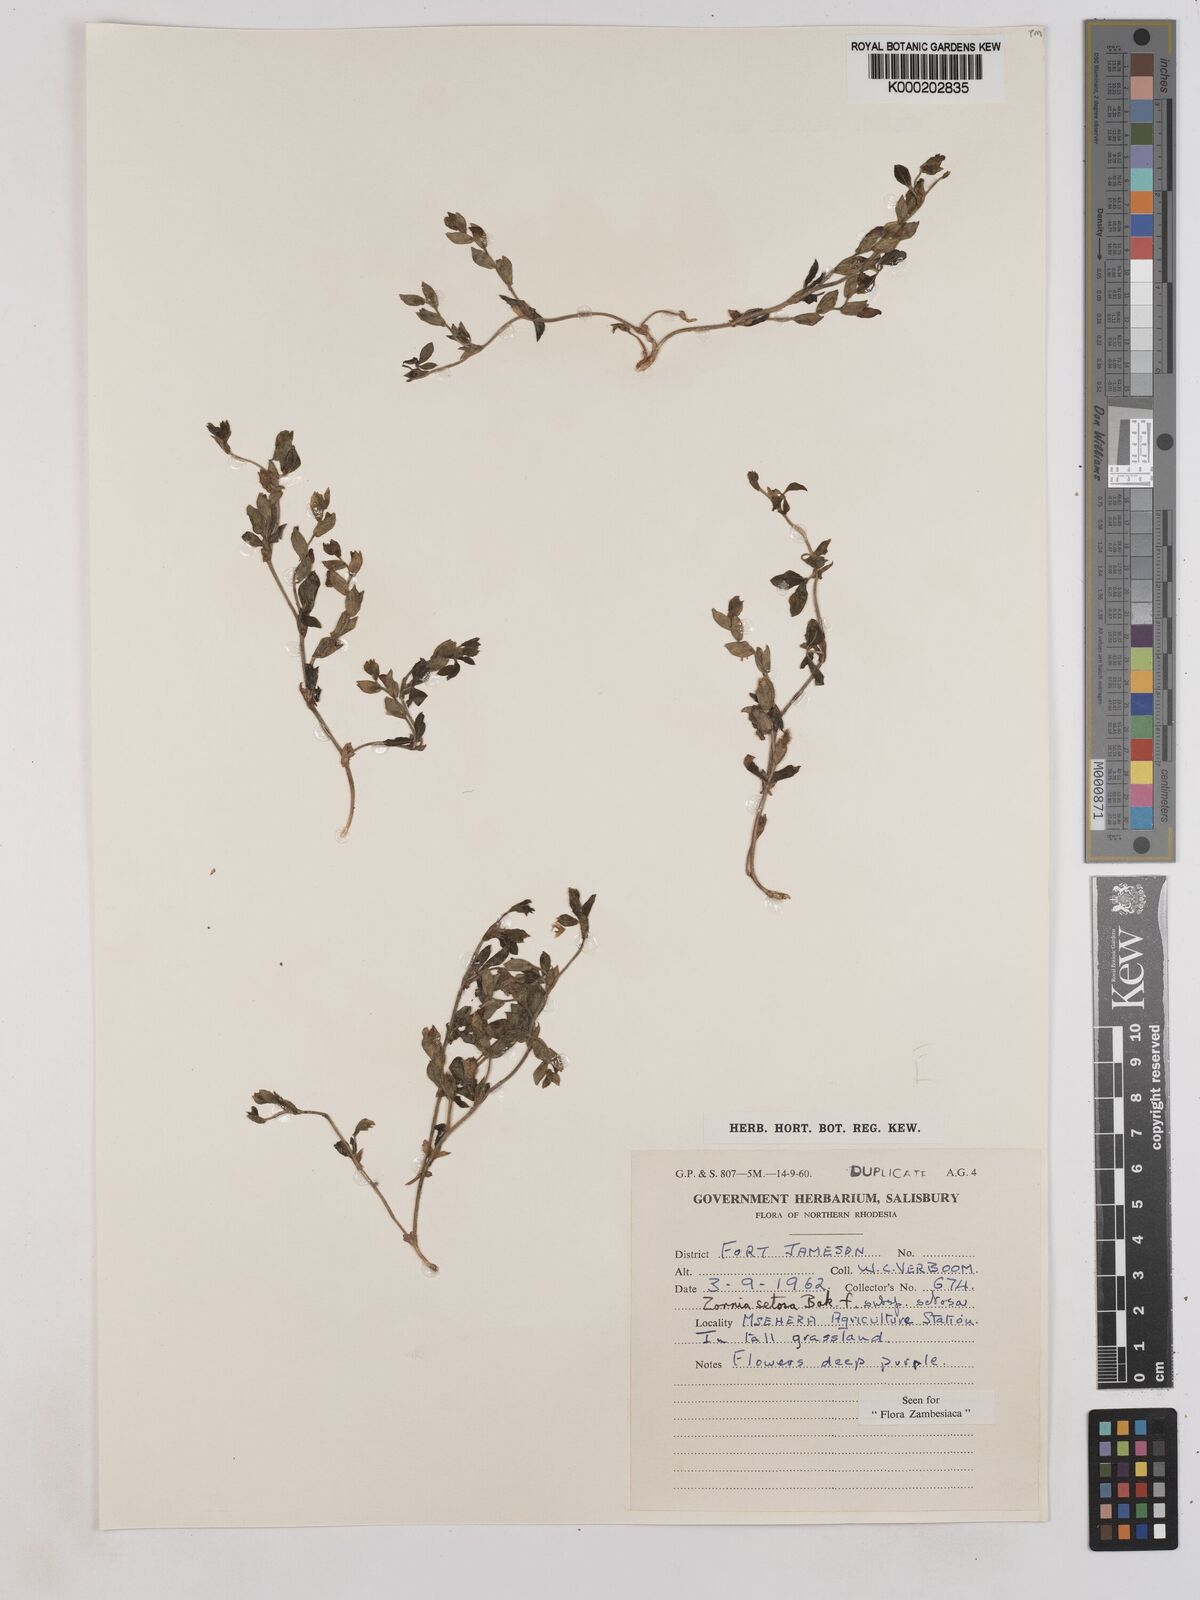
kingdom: Plantae
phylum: Tracheophyta
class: Magnoliopsida
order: Fabales
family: Fabaceae
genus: Zornia
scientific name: Zornia setosa
